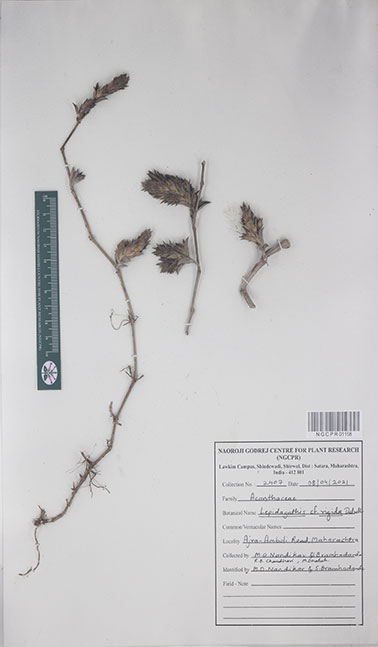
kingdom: Plantae
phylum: Tracheophyta
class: Magnoliopsida
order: Lamiales
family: Acanthaceae
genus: Lepidagathis
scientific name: Lepidagathis rigida
